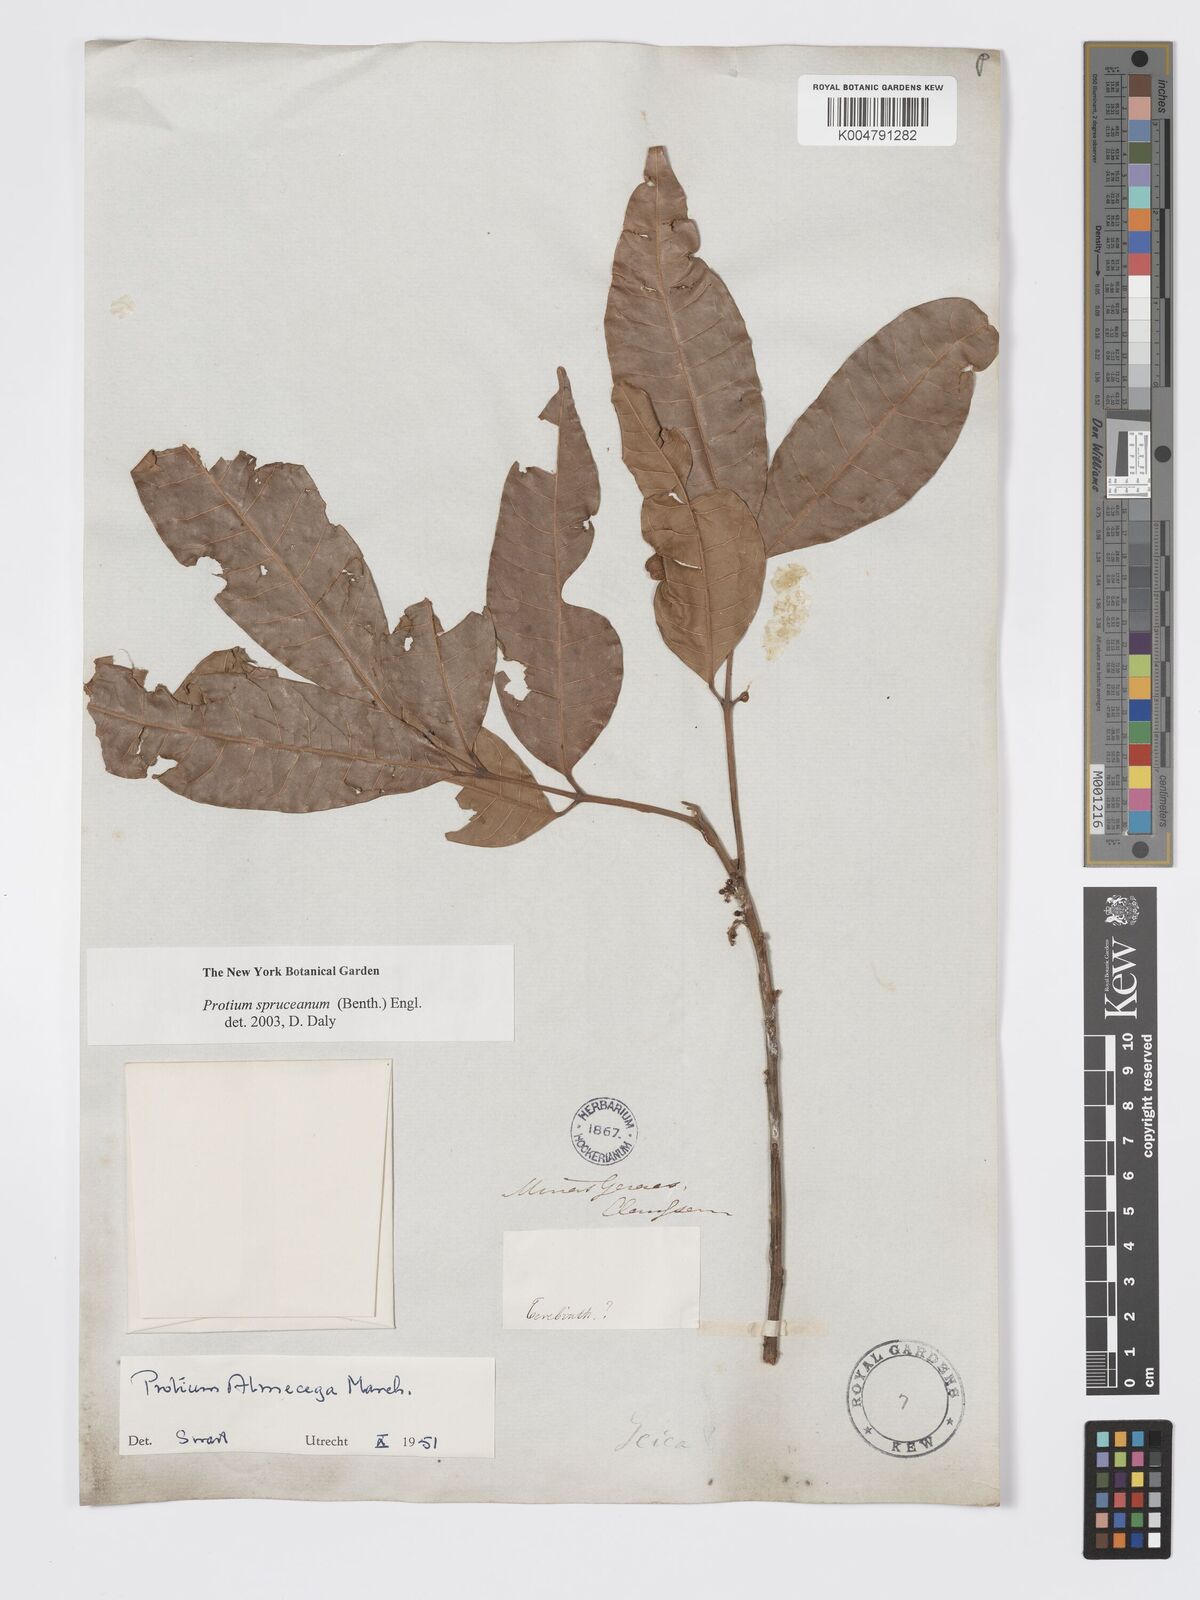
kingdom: Plantae
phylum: Tracheophyta
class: Magnoliopsida
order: Sapindales
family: Burseraceae
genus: Protium
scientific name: Protium spruceanum
